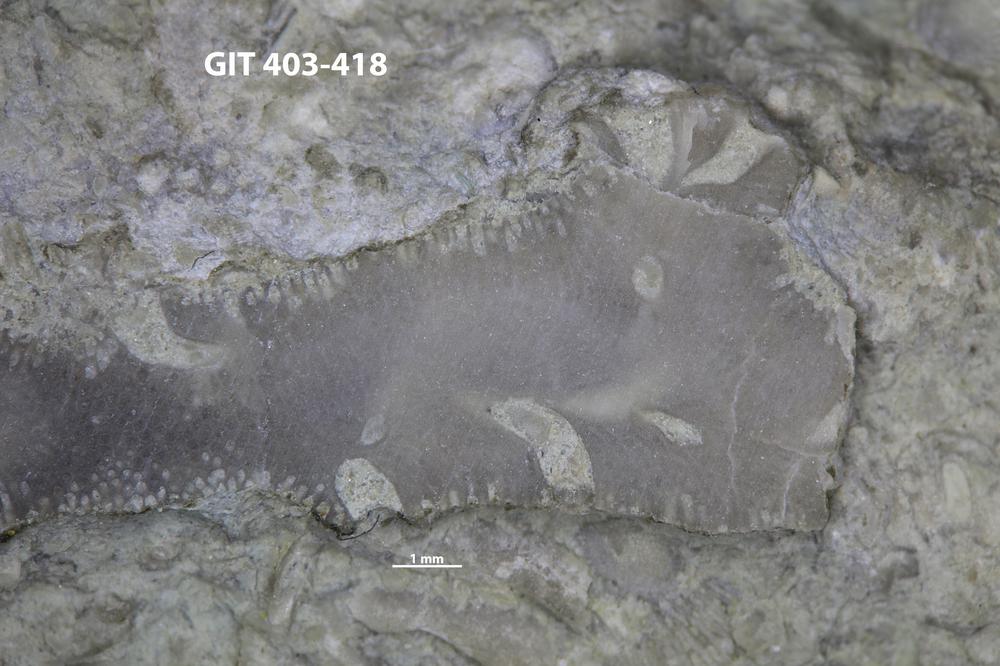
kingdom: Animalia
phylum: Cnidaria
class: Hydrozoa
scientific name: Hydrozoa
